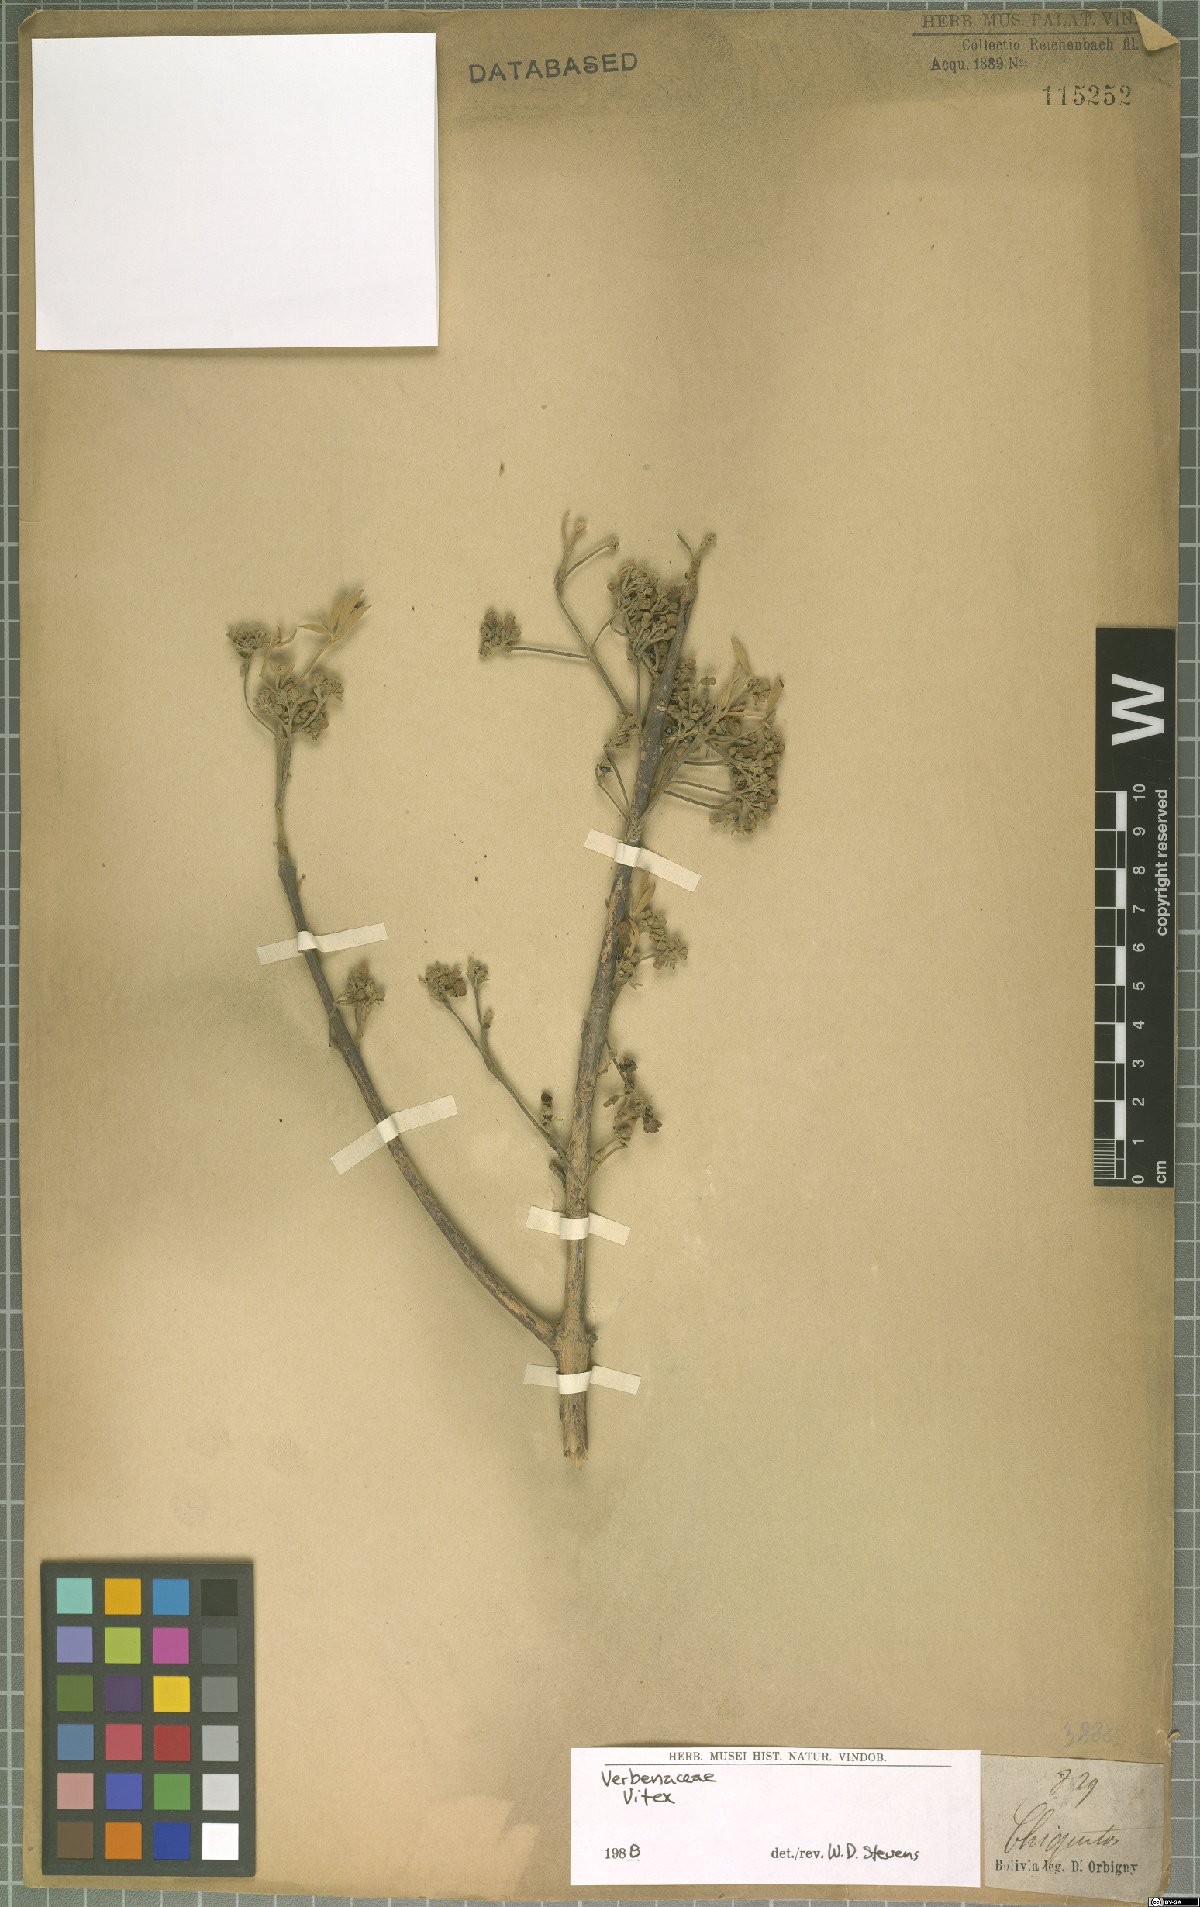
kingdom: Plantae
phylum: Tracheophyta
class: Magnoliopsida
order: Lamiales
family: Lamiaceae
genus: Vitex
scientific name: Vitex
